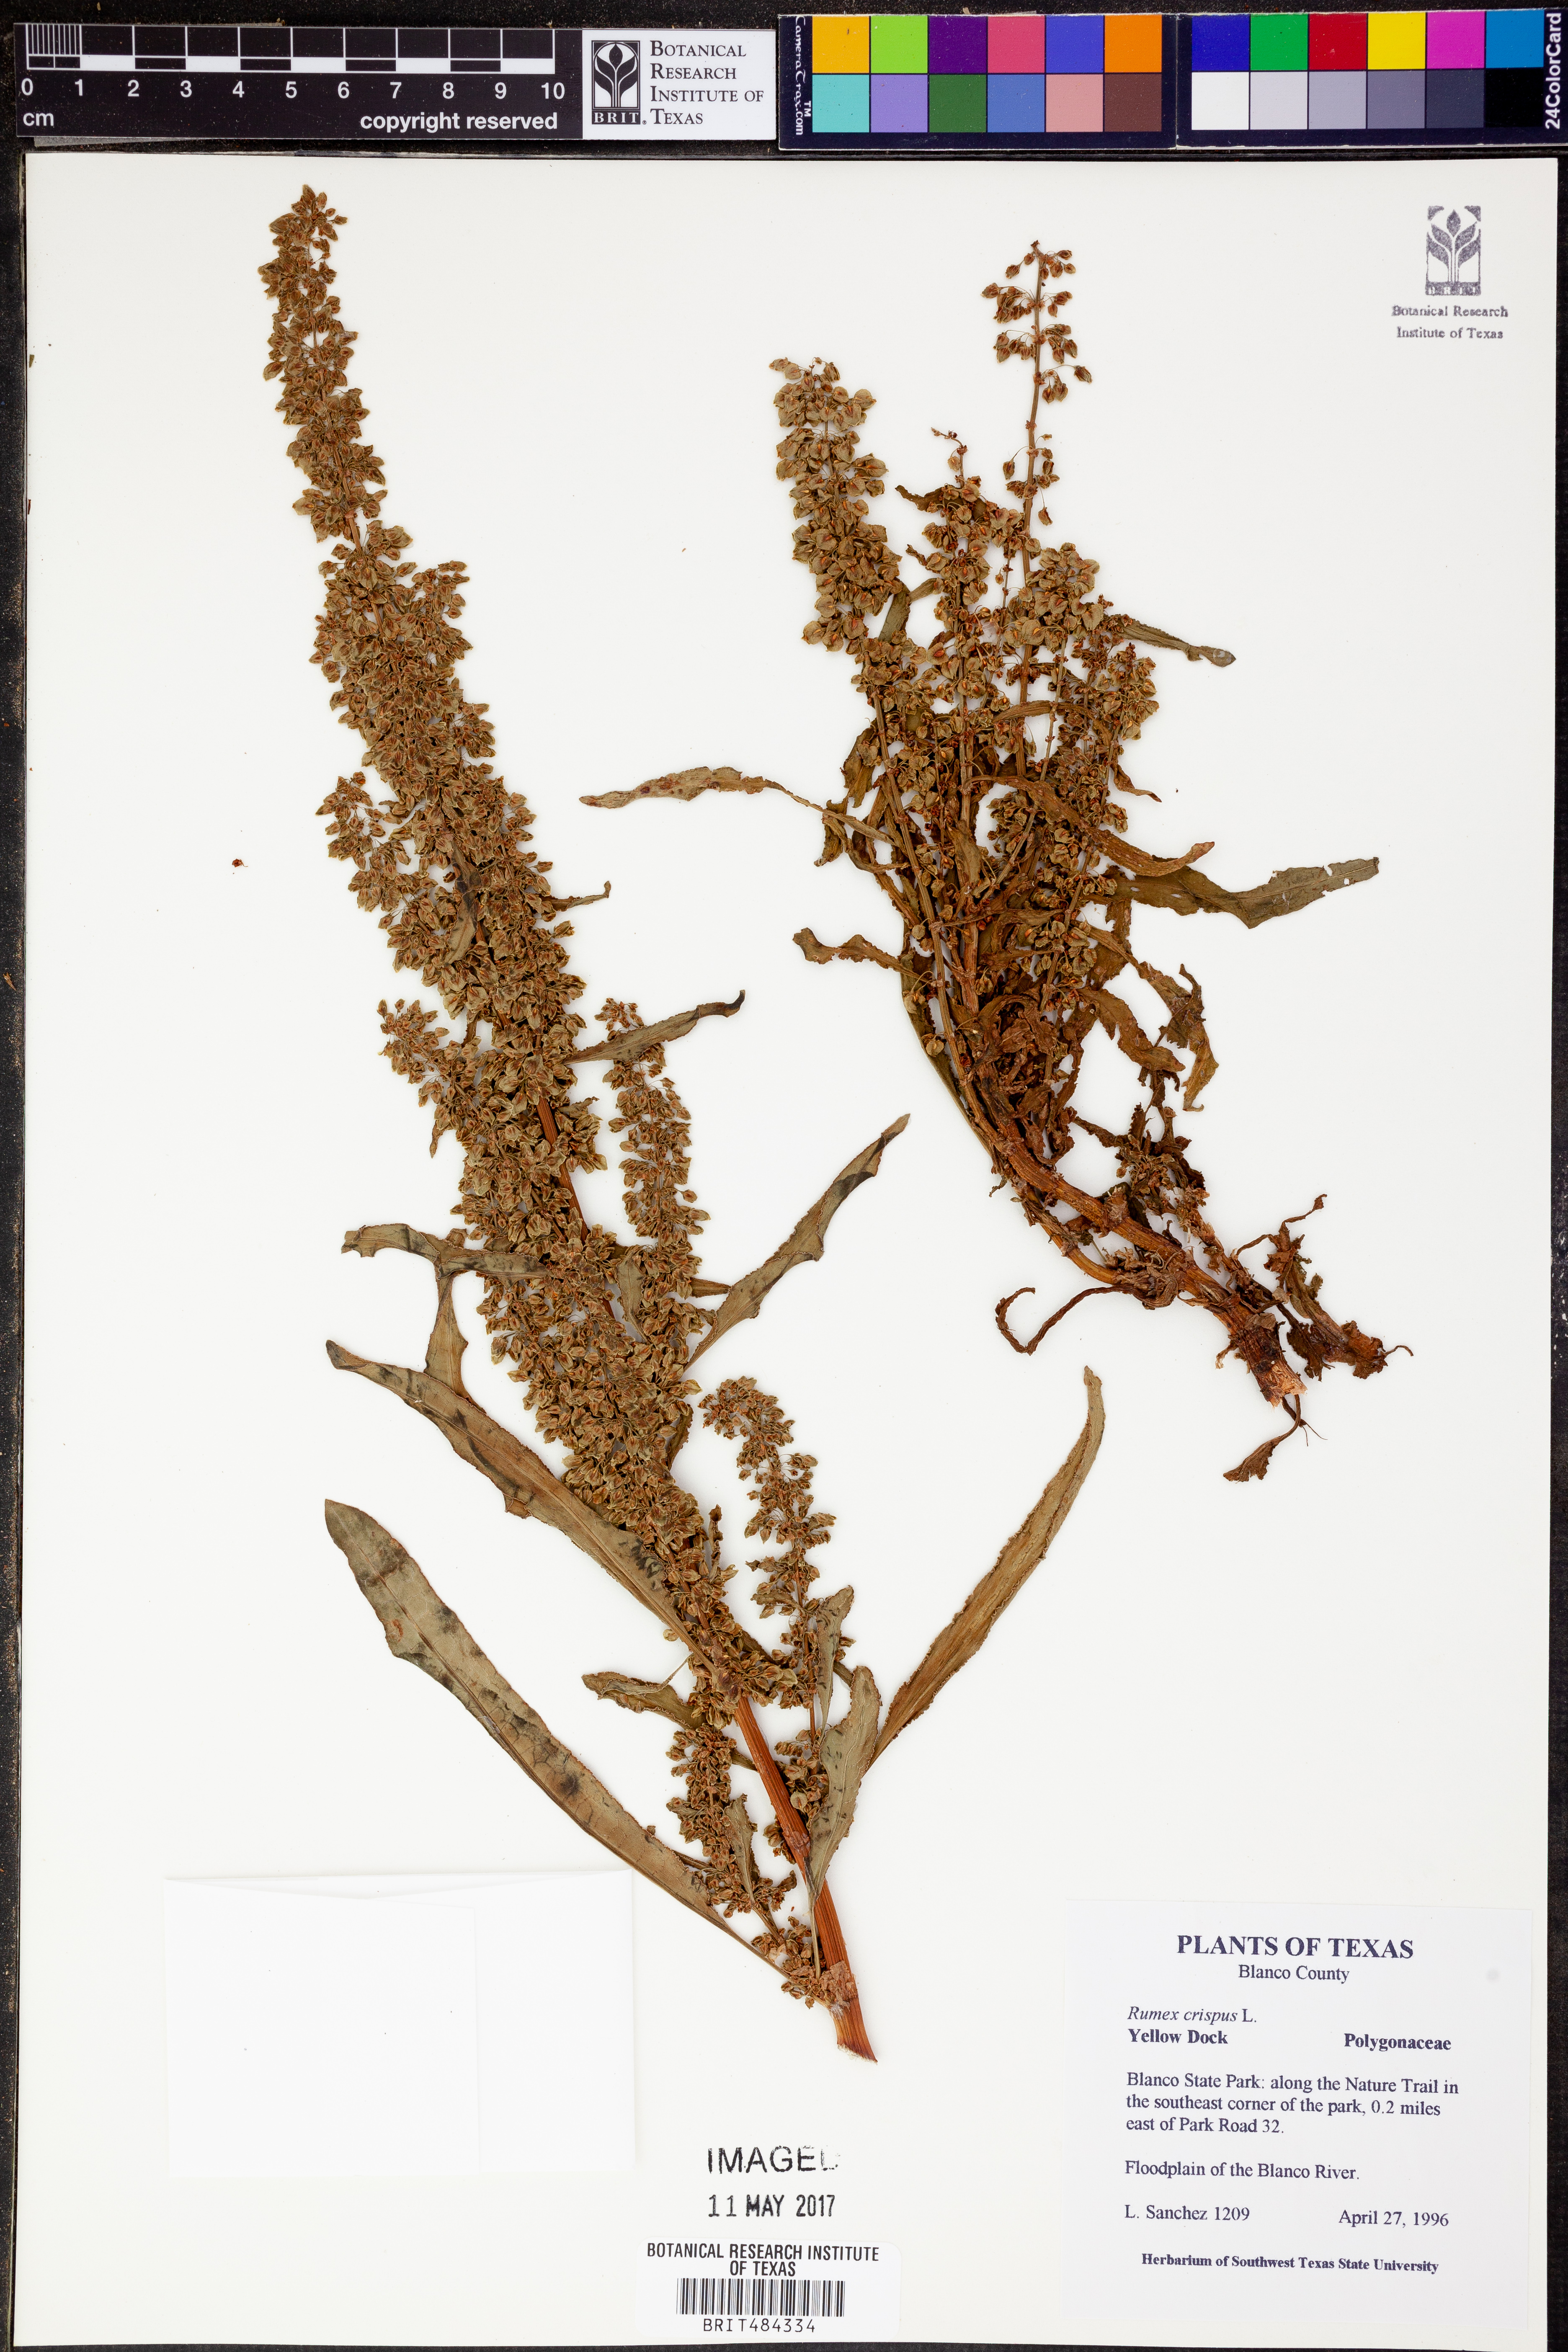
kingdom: Plantae
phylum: Tracheophyta
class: Magnoliopsida
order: Caryophyllales
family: Polygonaceae
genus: Rumex
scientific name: Rumex crispus
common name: Curled dock
